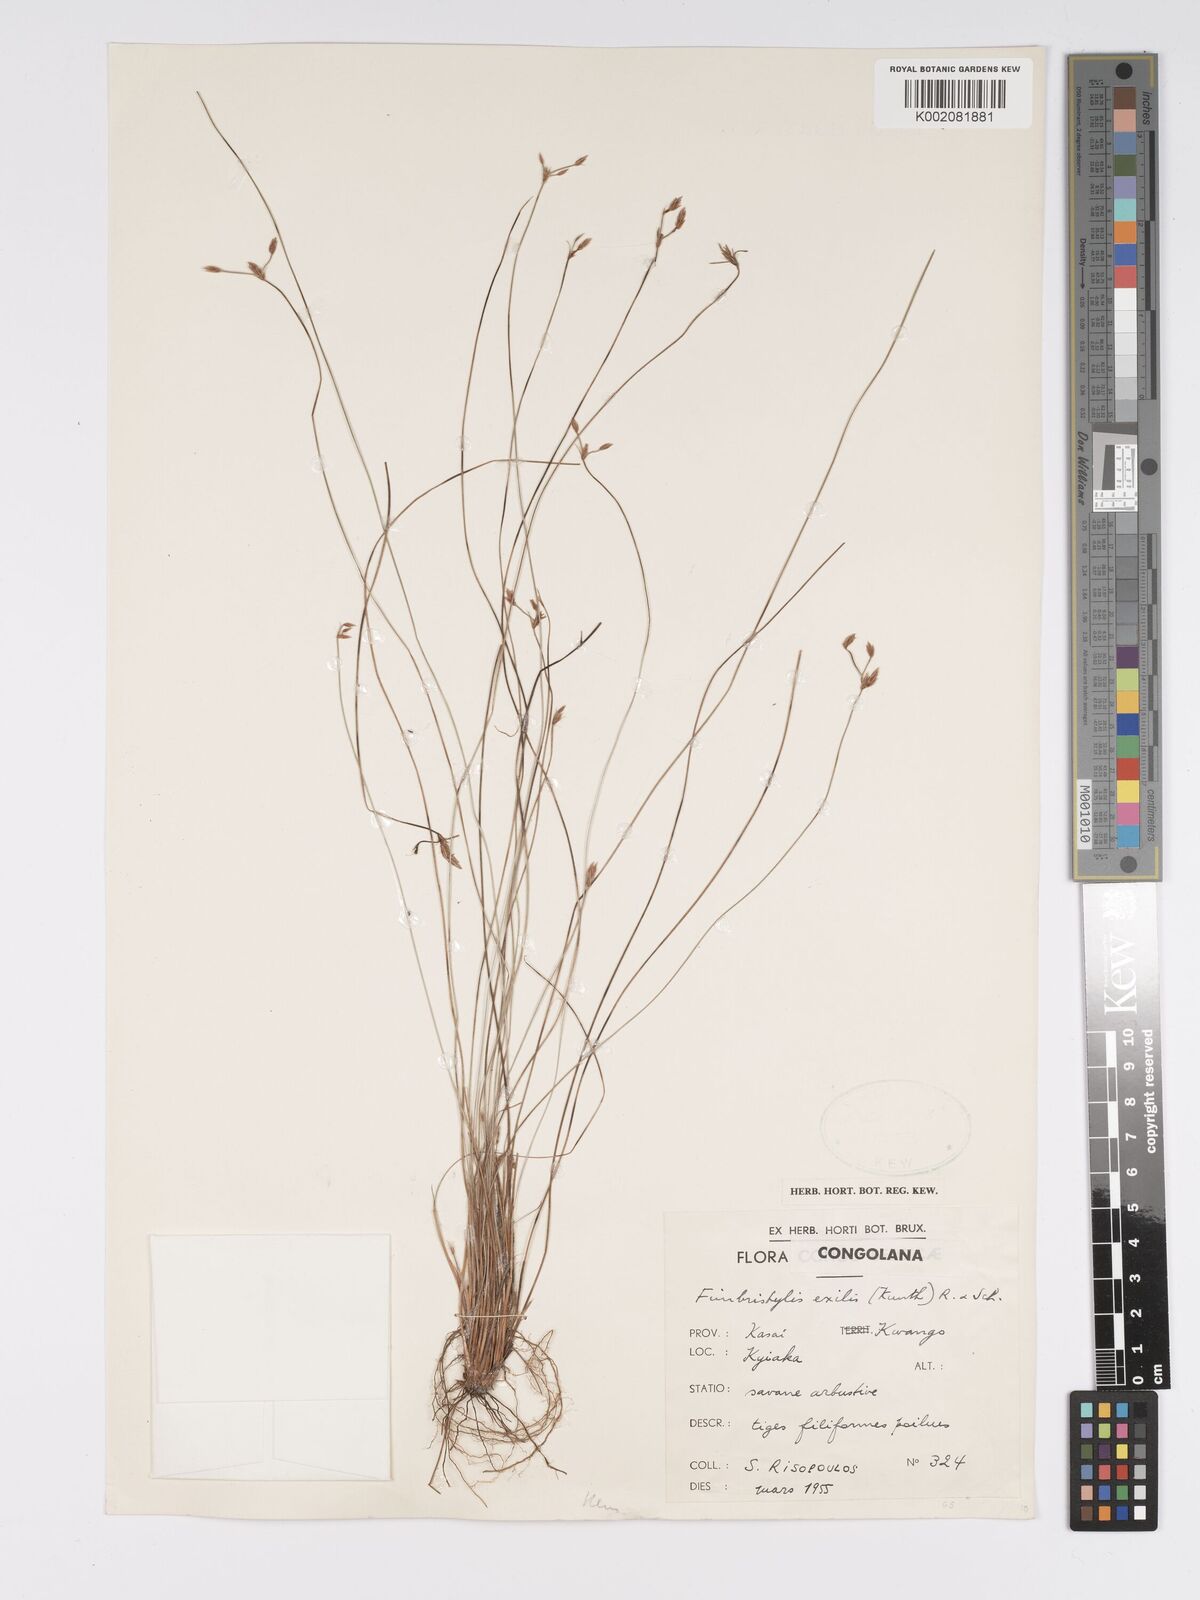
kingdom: Plantae
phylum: Tracheophyta
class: Liliopsida
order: Poales
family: Cyperaceae
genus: Bulbostylis
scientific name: Bulbostylis hispidula
